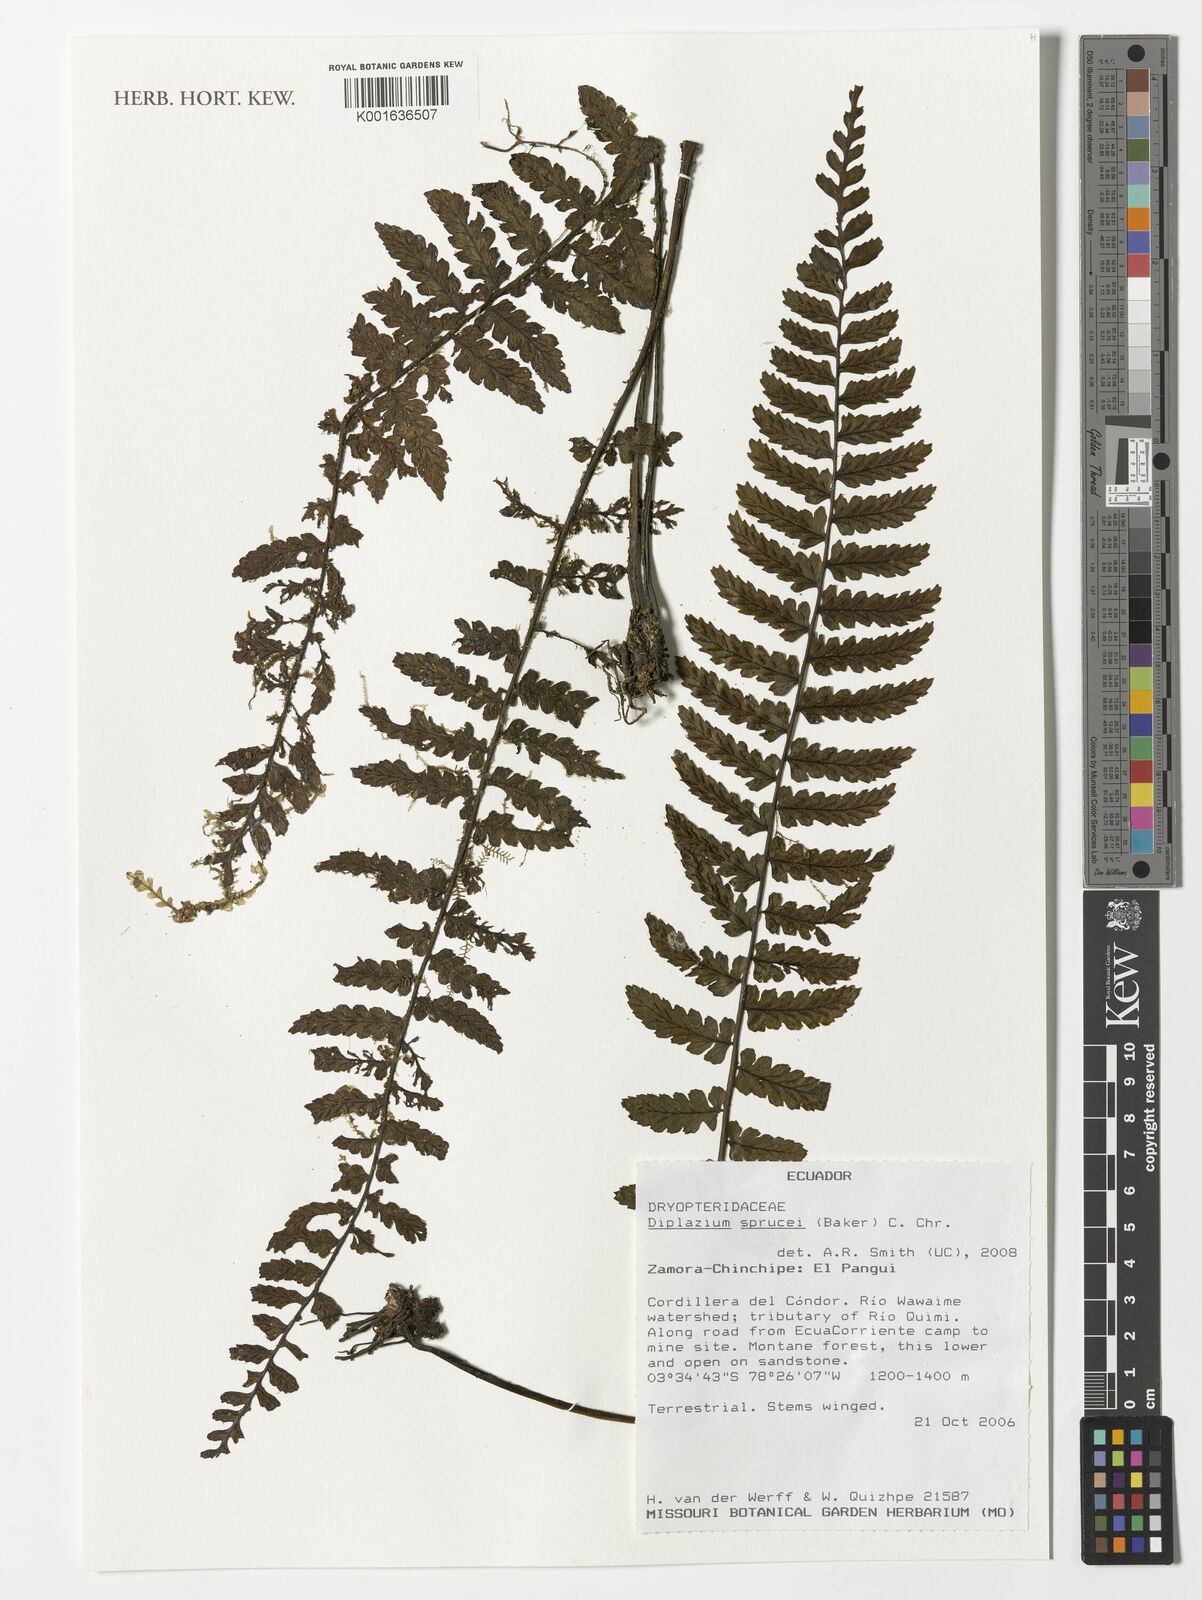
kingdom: Plantae
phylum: Tracheophyta
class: Polypodiopsida
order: Polypodiales
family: Athyriaceae
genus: Diplazium
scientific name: Diplazium sprucei
